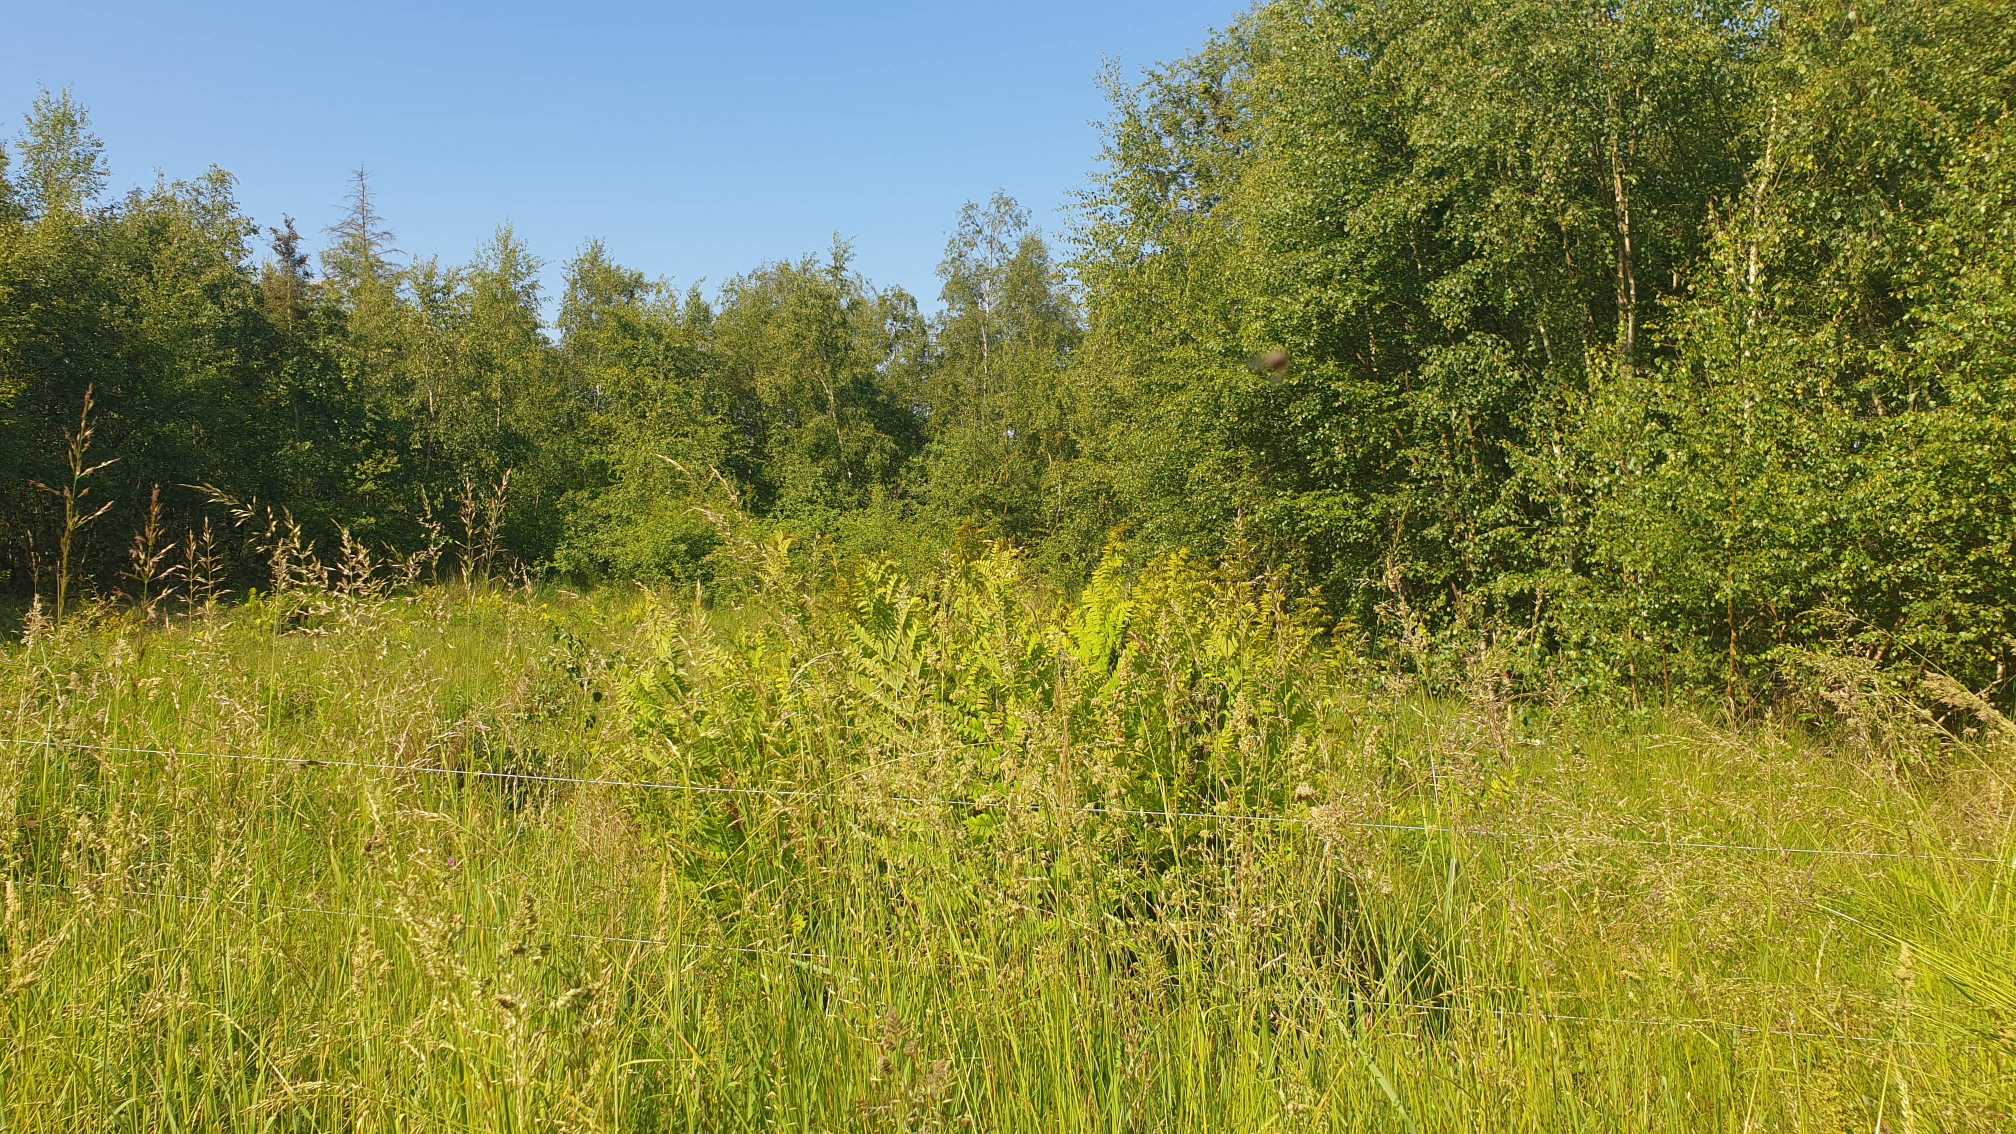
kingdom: Plantae
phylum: Tracheophyta
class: Polypodiopsida
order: Osmundales
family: Osmundaceae
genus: Osmunda
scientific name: Osmunda regalis
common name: Kongebregne
